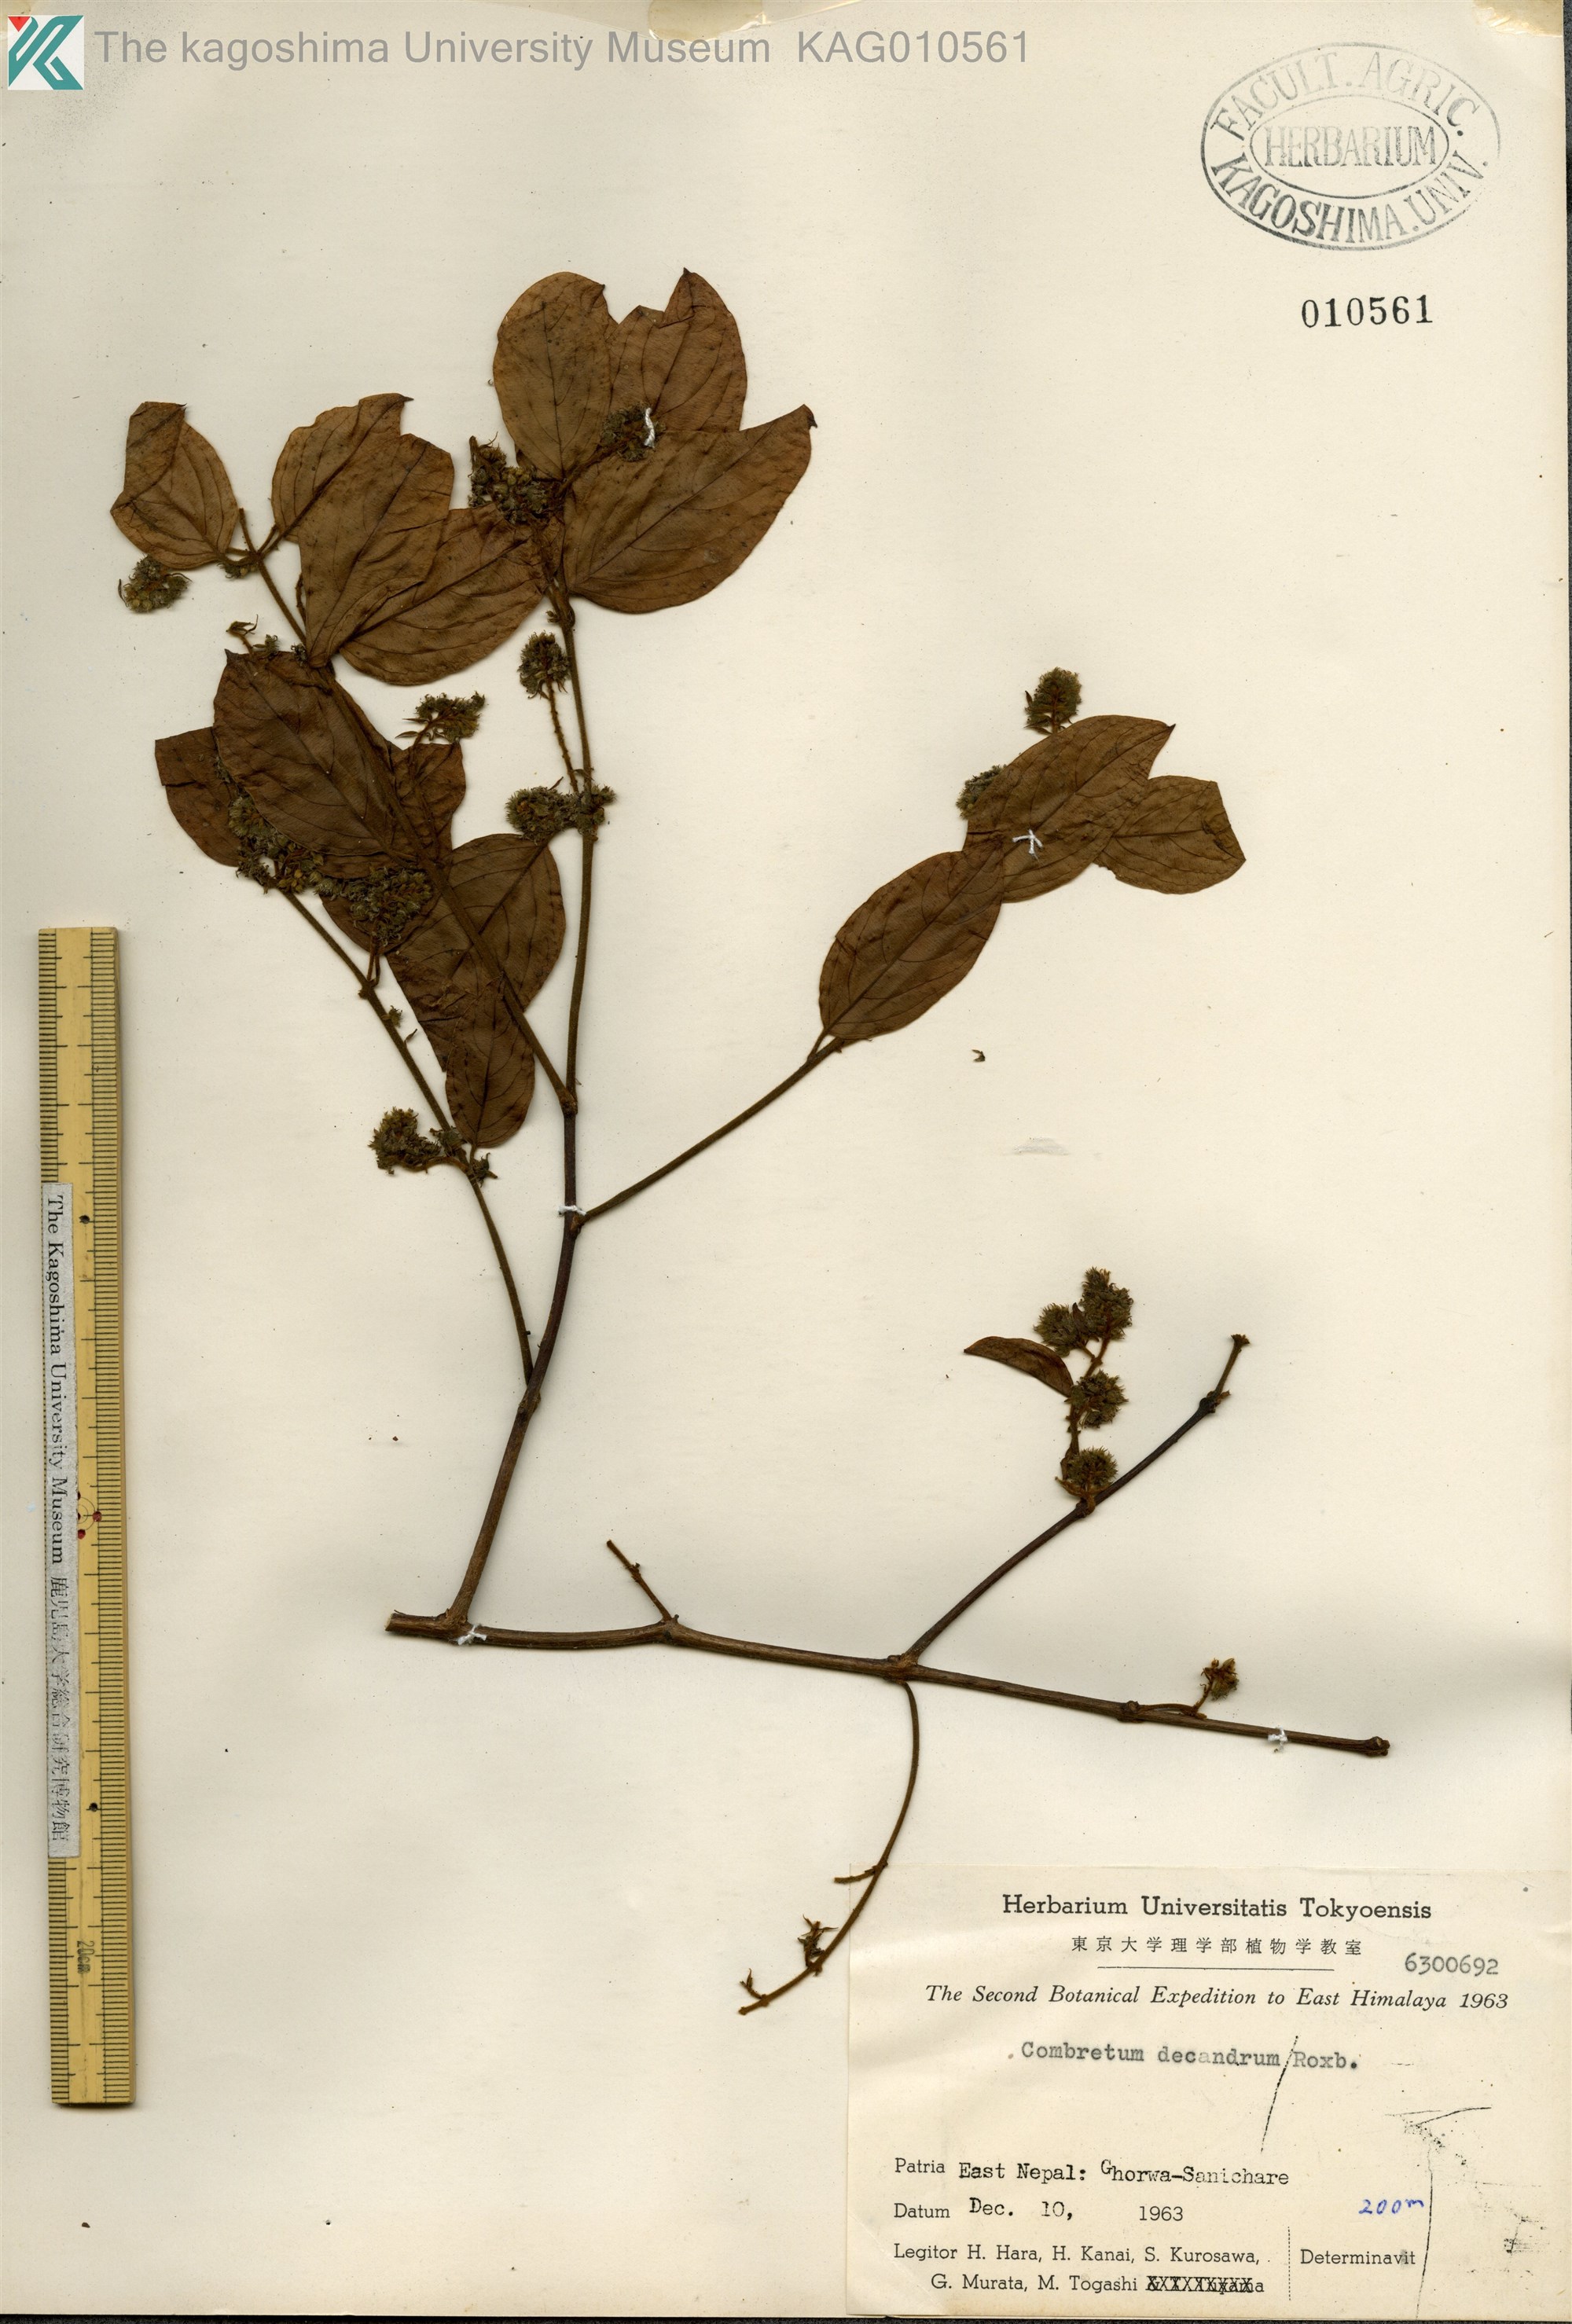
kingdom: Plantae
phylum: Tracheophyta
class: Magnoliopsida
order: Myrtales
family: Combretaceae
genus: Combretum
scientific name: Combretum decandrum
